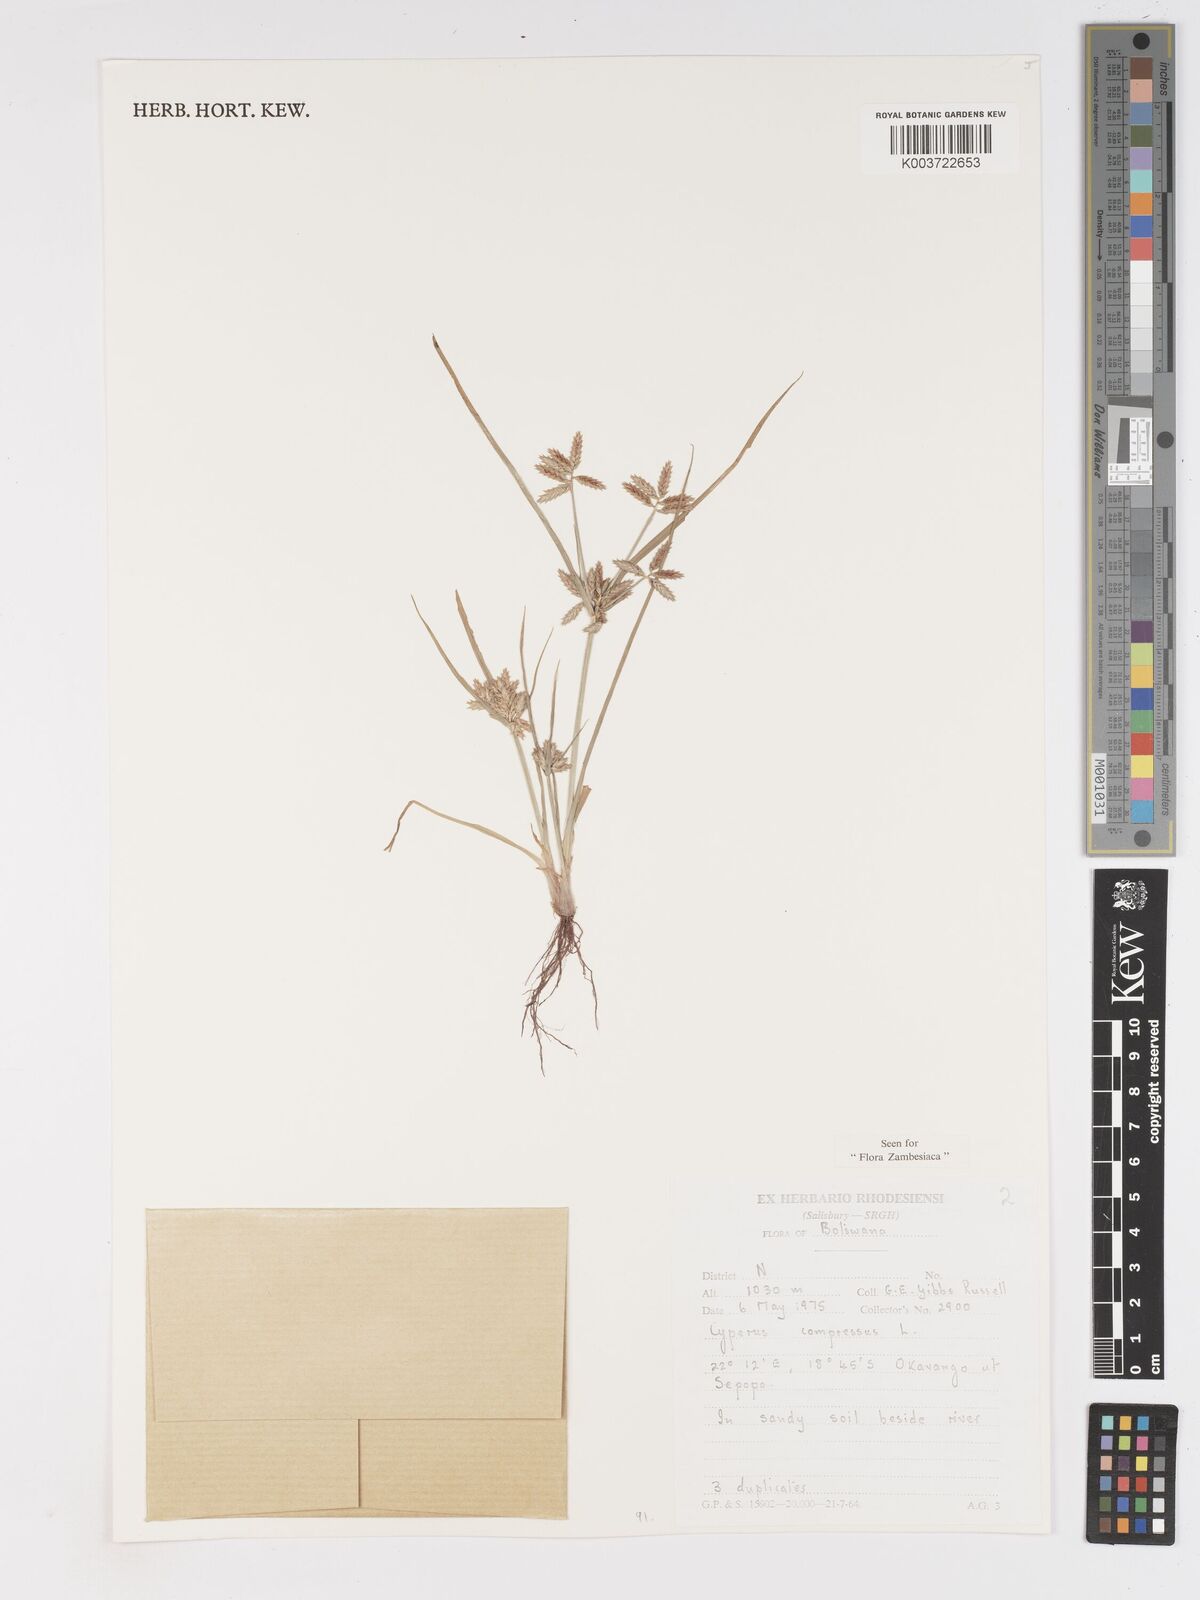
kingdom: Plantae
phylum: Tracheophyta
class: Liliopsida
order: Poales
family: Cyperaceae
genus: Cyperus
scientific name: Cyperus compressus
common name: Poorland flatsedge
